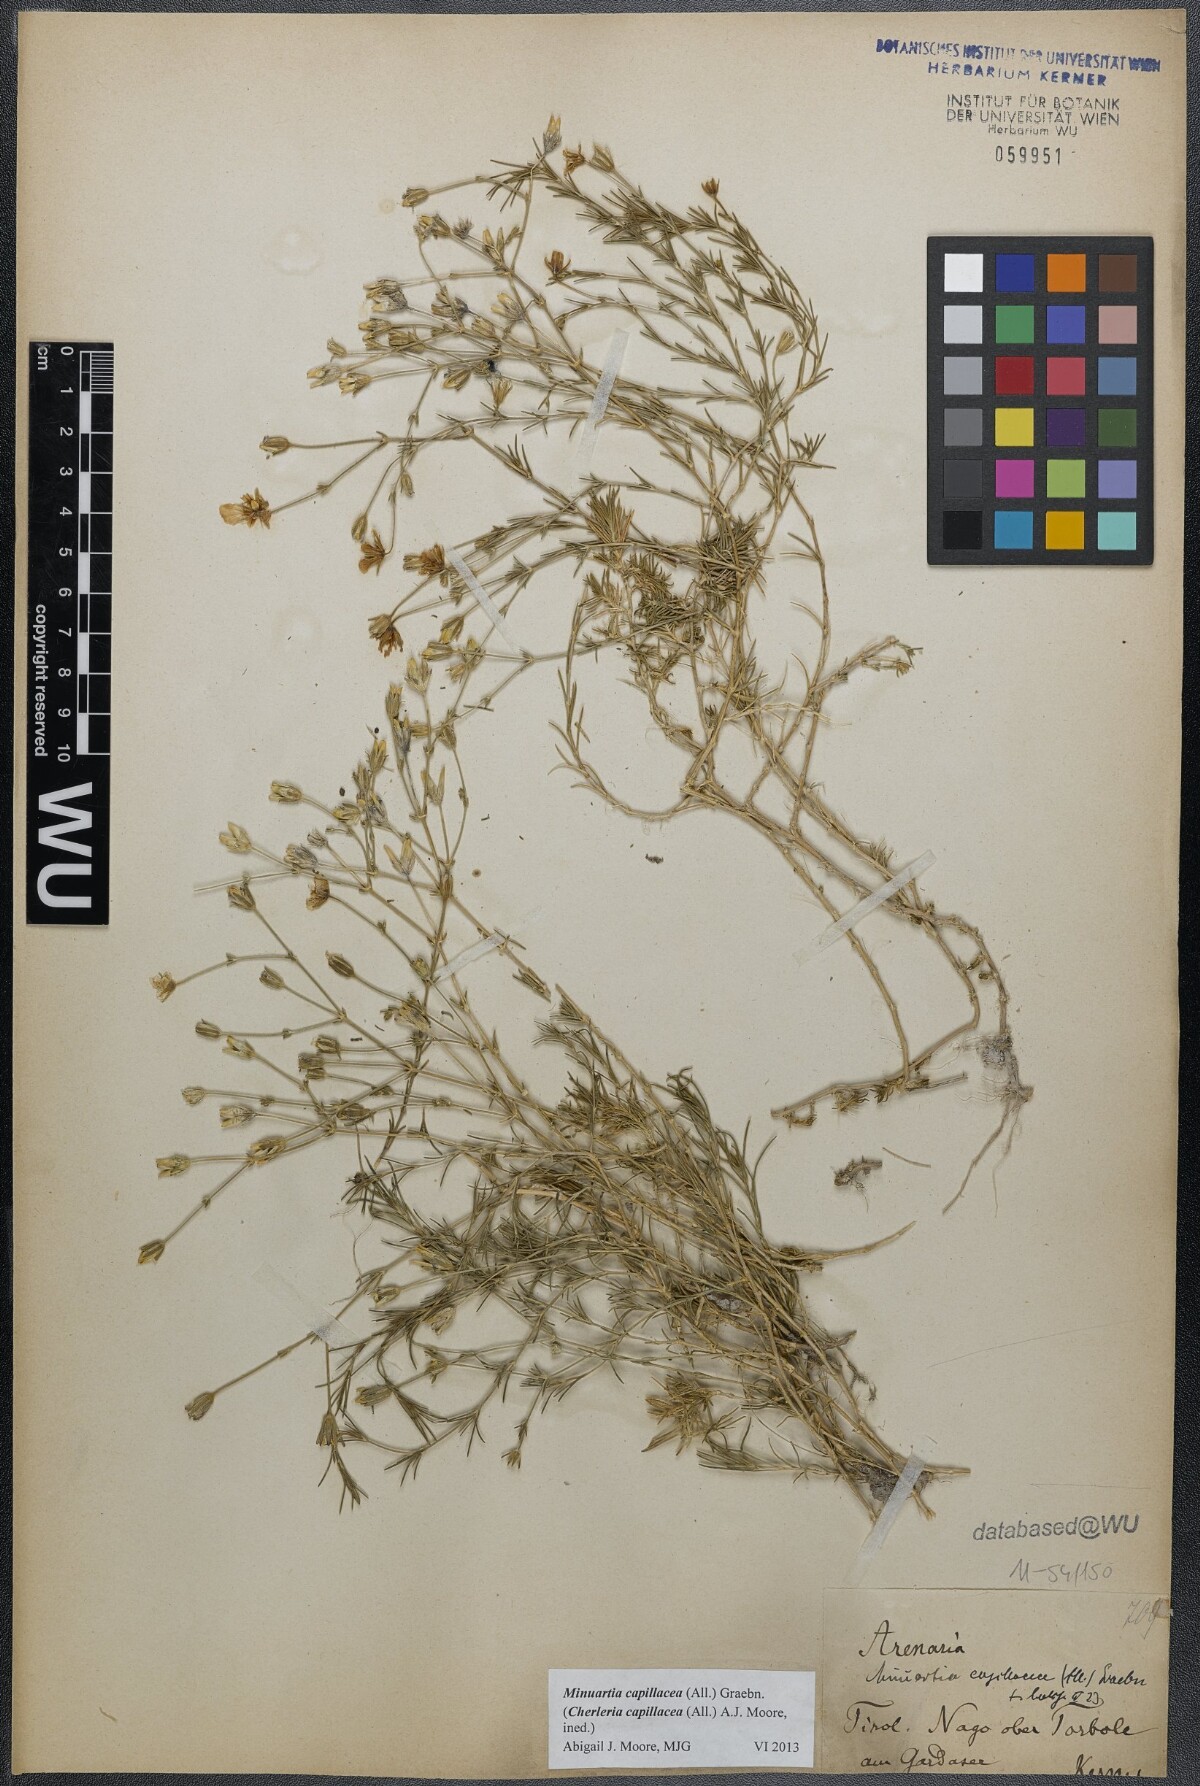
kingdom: Plantae
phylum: Tracheophyta
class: Magnoliopsida
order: Caryophyllales
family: Caryophyllaceae
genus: Cherleria
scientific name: Cherleria capillacea
